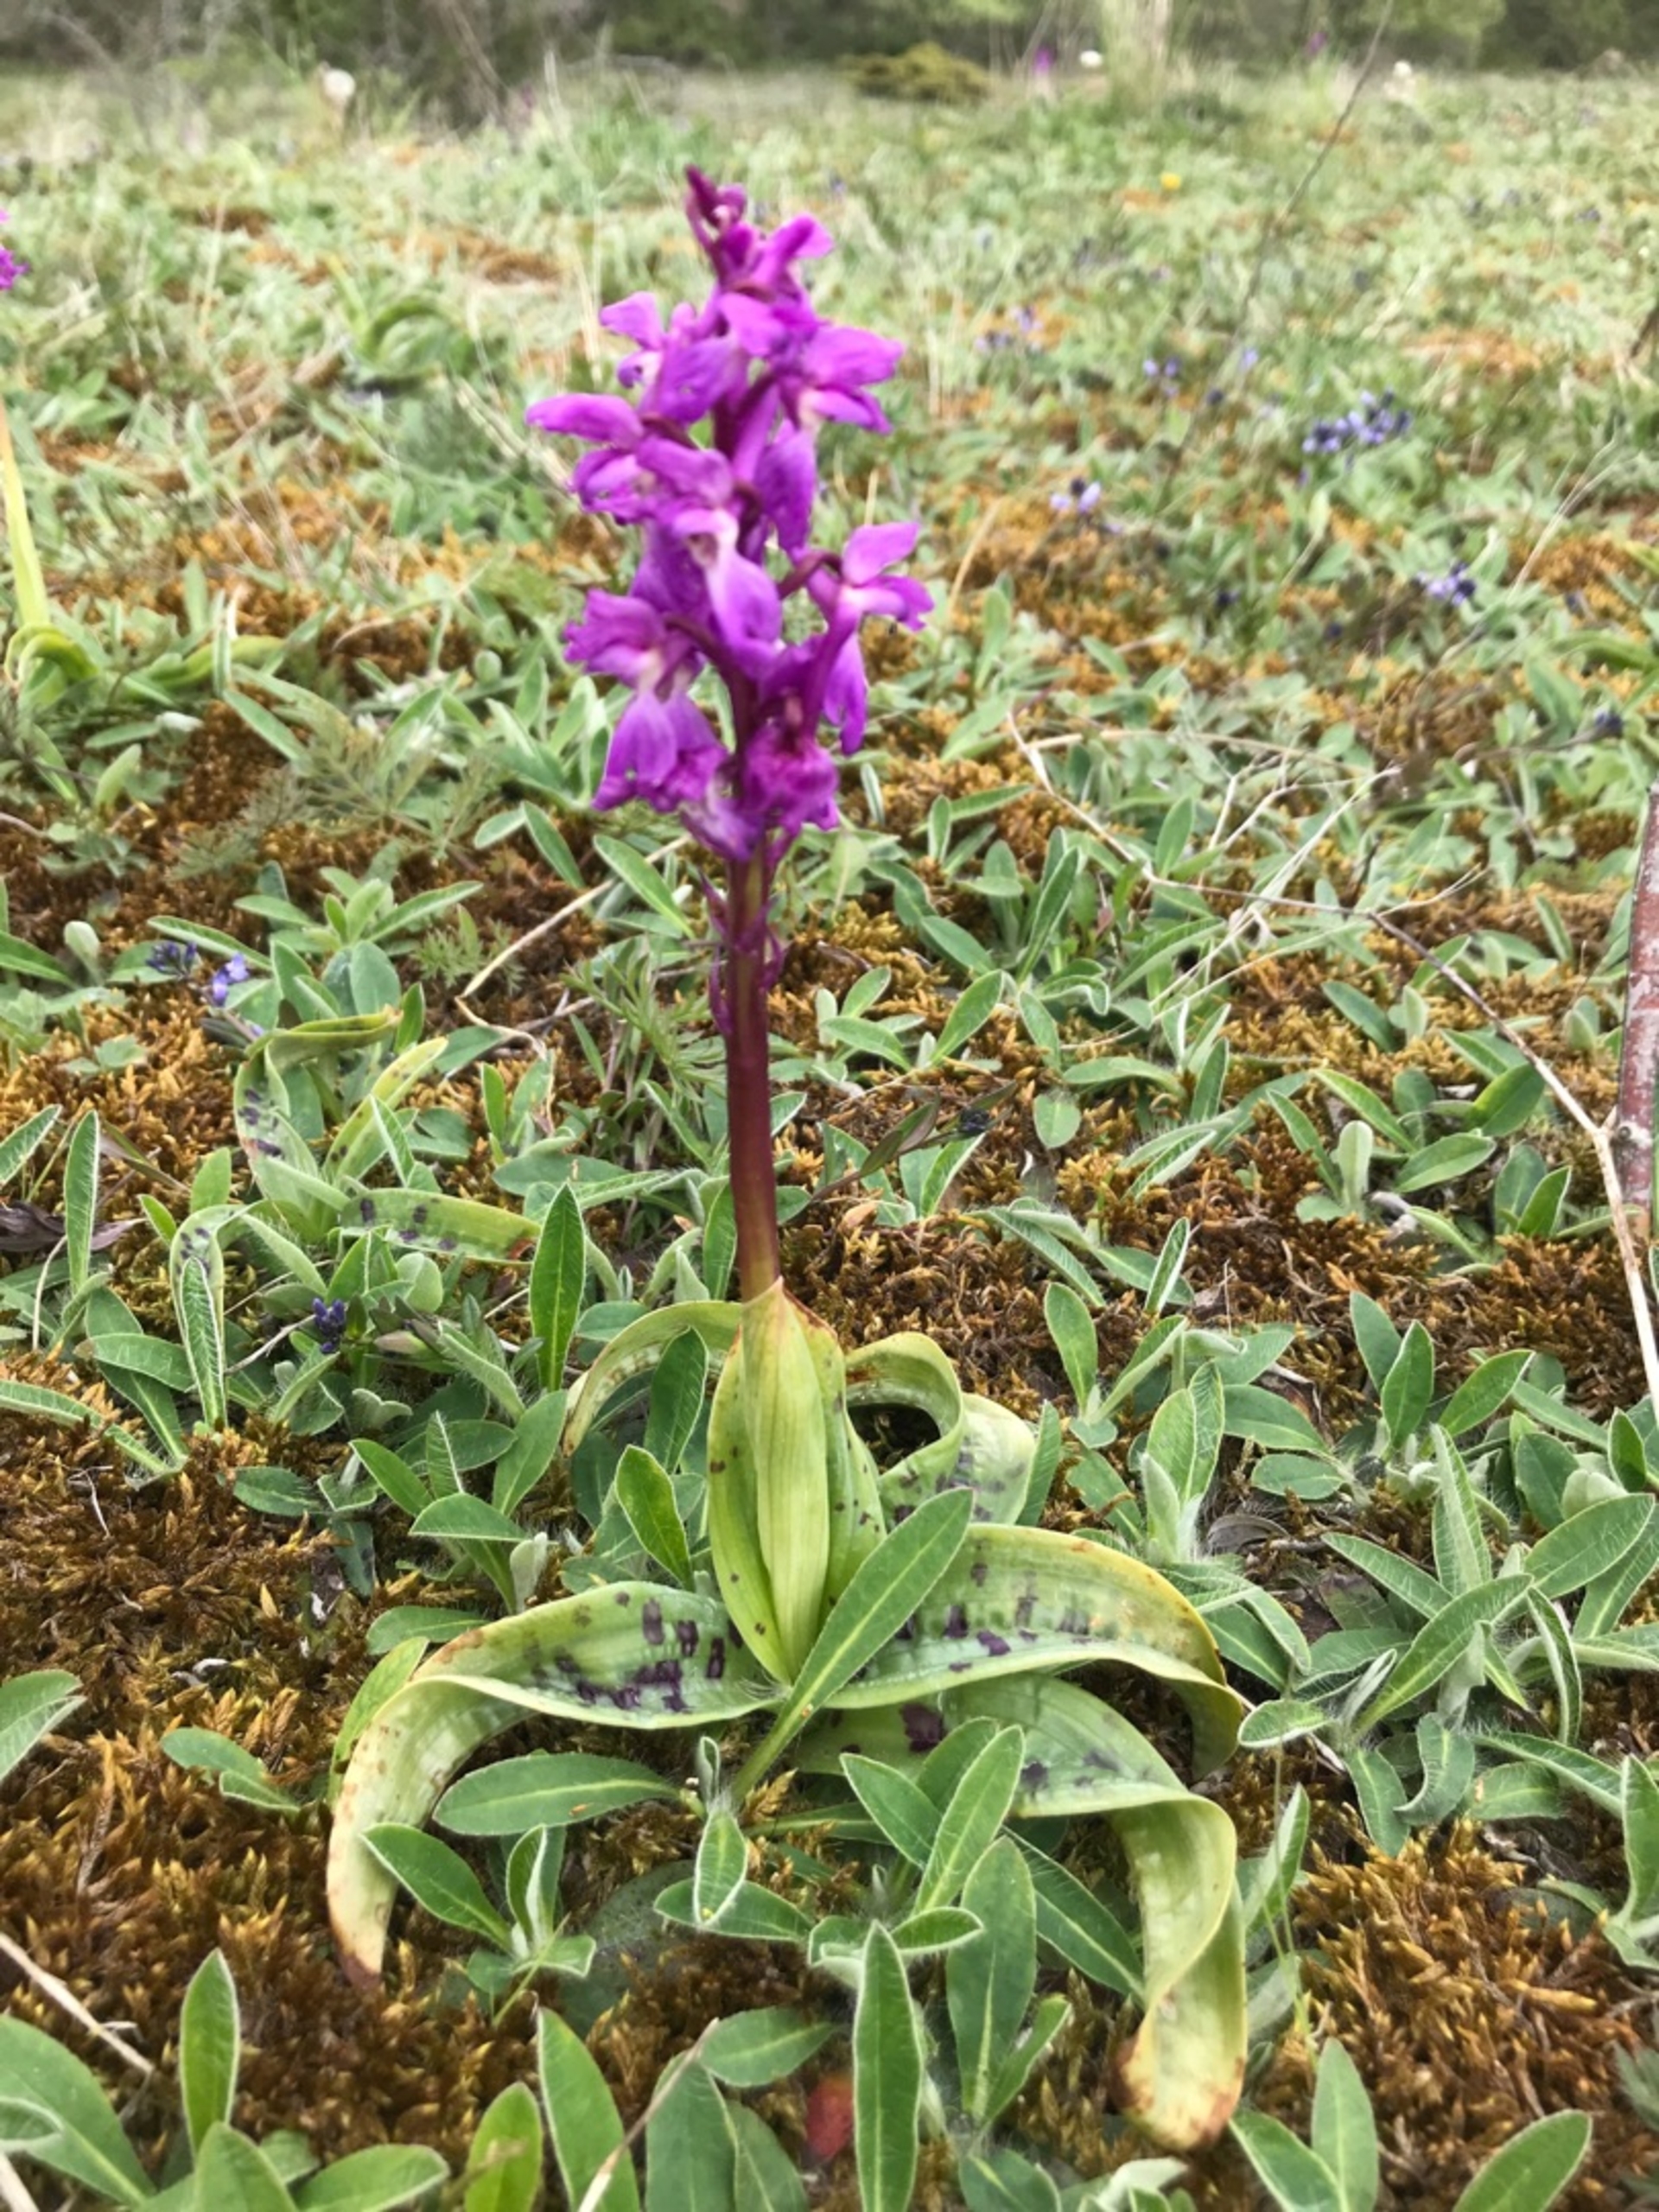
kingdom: Plantae
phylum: Tracheophyta
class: Liliopsida
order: Asparagales
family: Orchidaceae
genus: Orchis
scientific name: Orchis mascula
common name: Tyndakset gøgeurt
